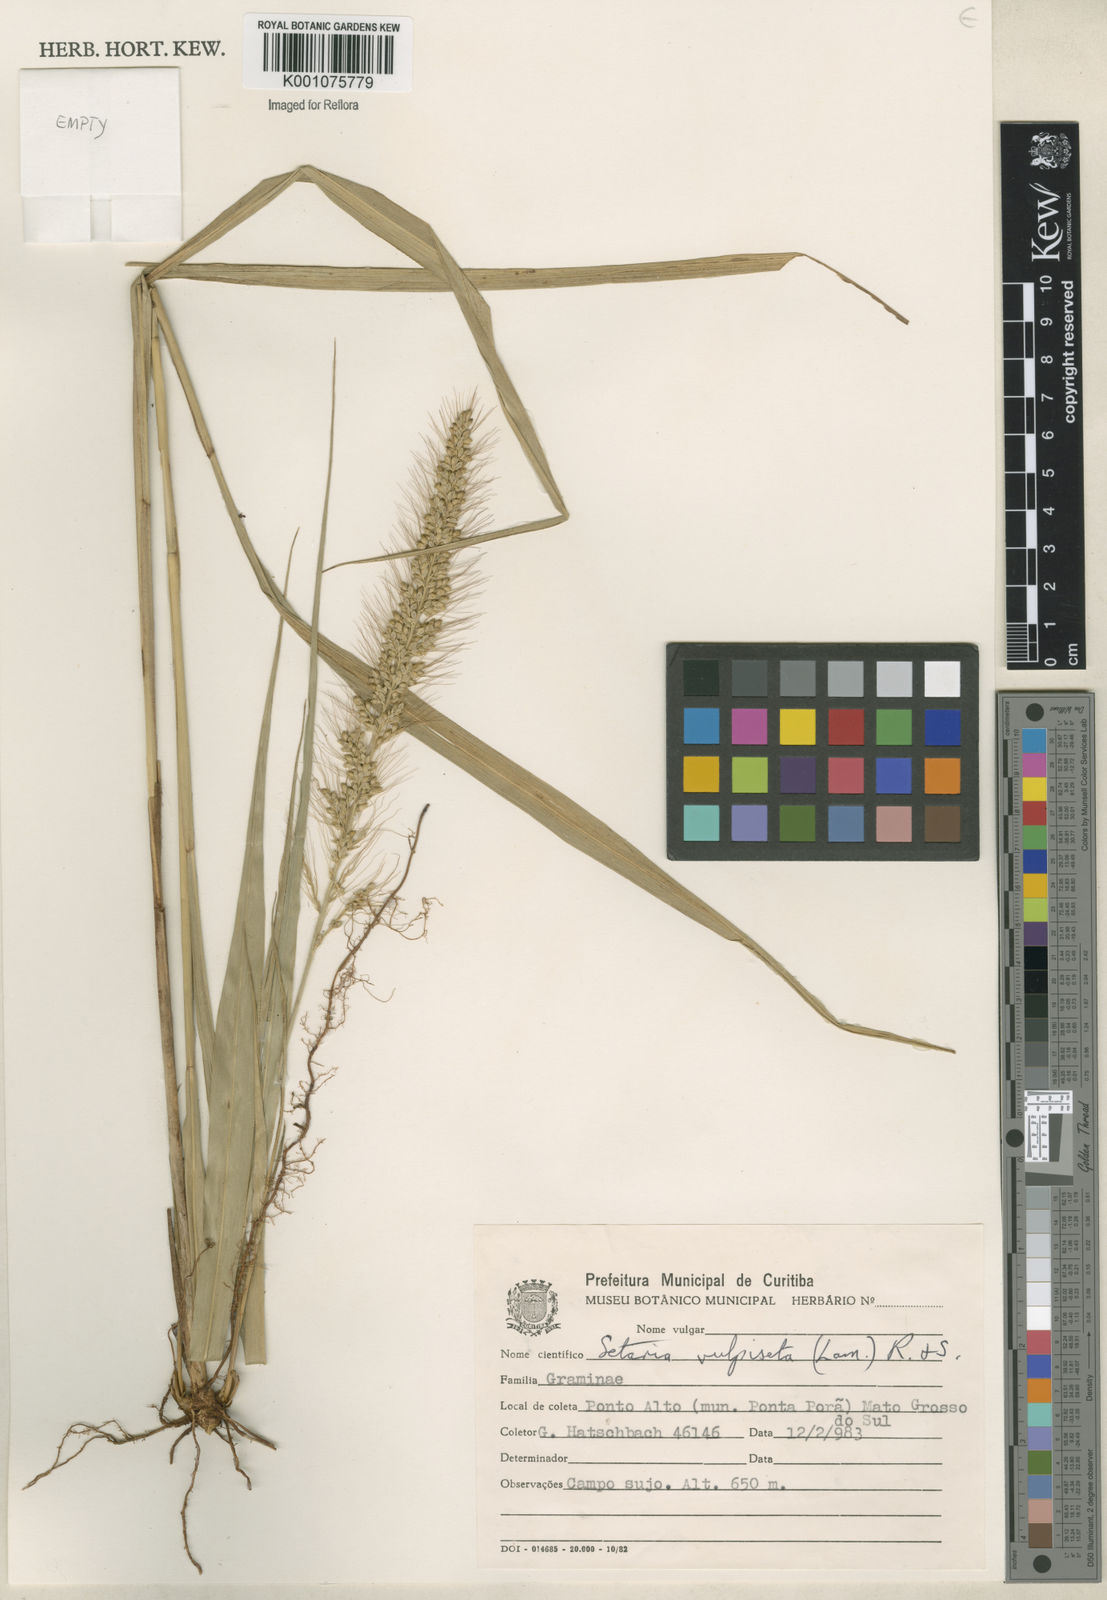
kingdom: Plantae
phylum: Tracheophyta
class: Liliopsida
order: Poales
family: Poaceae
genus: Setaria
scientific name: Setaria vulpiseta
